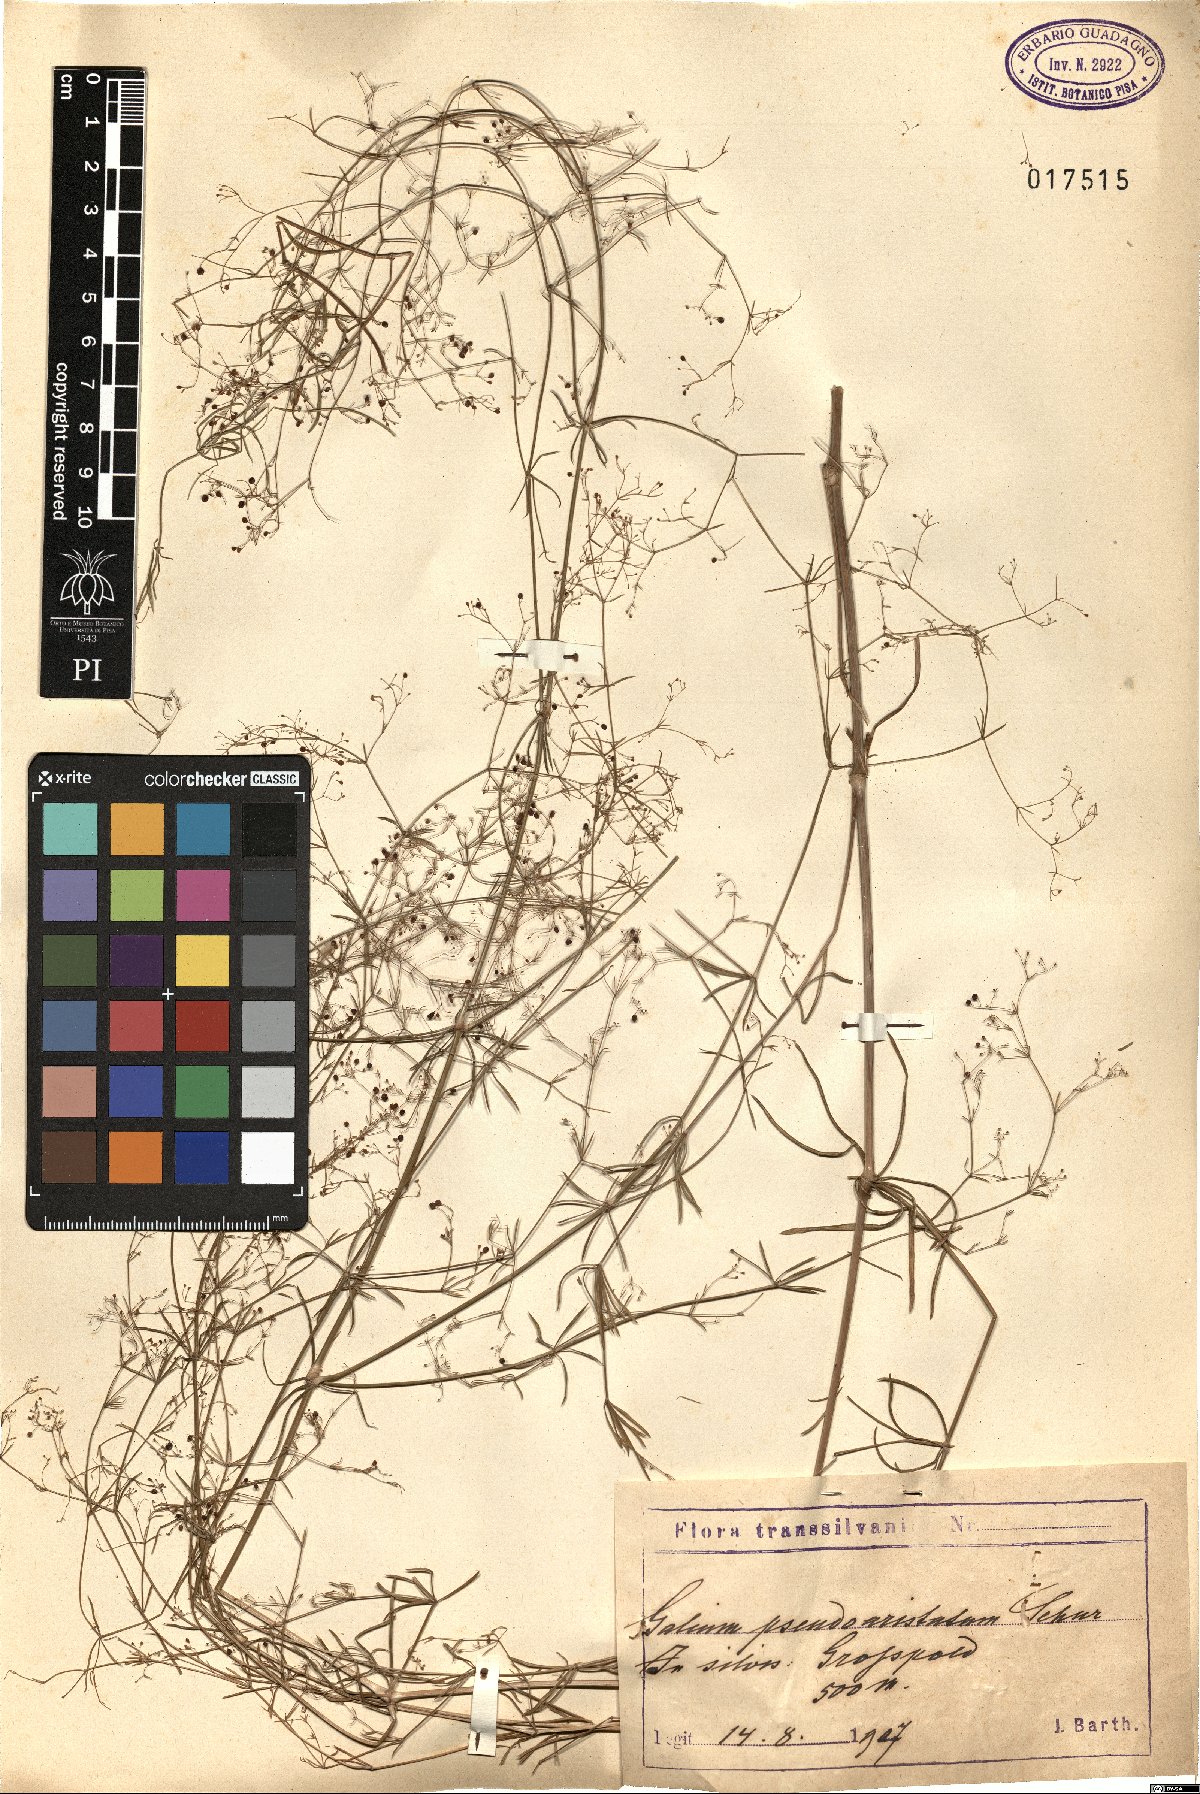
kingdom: Plantae
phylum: Tracheophyta
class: Magnoliopsida
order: Gentianales
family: Rubiaceae
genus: Galium
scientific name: Galium pseudoaristatum
